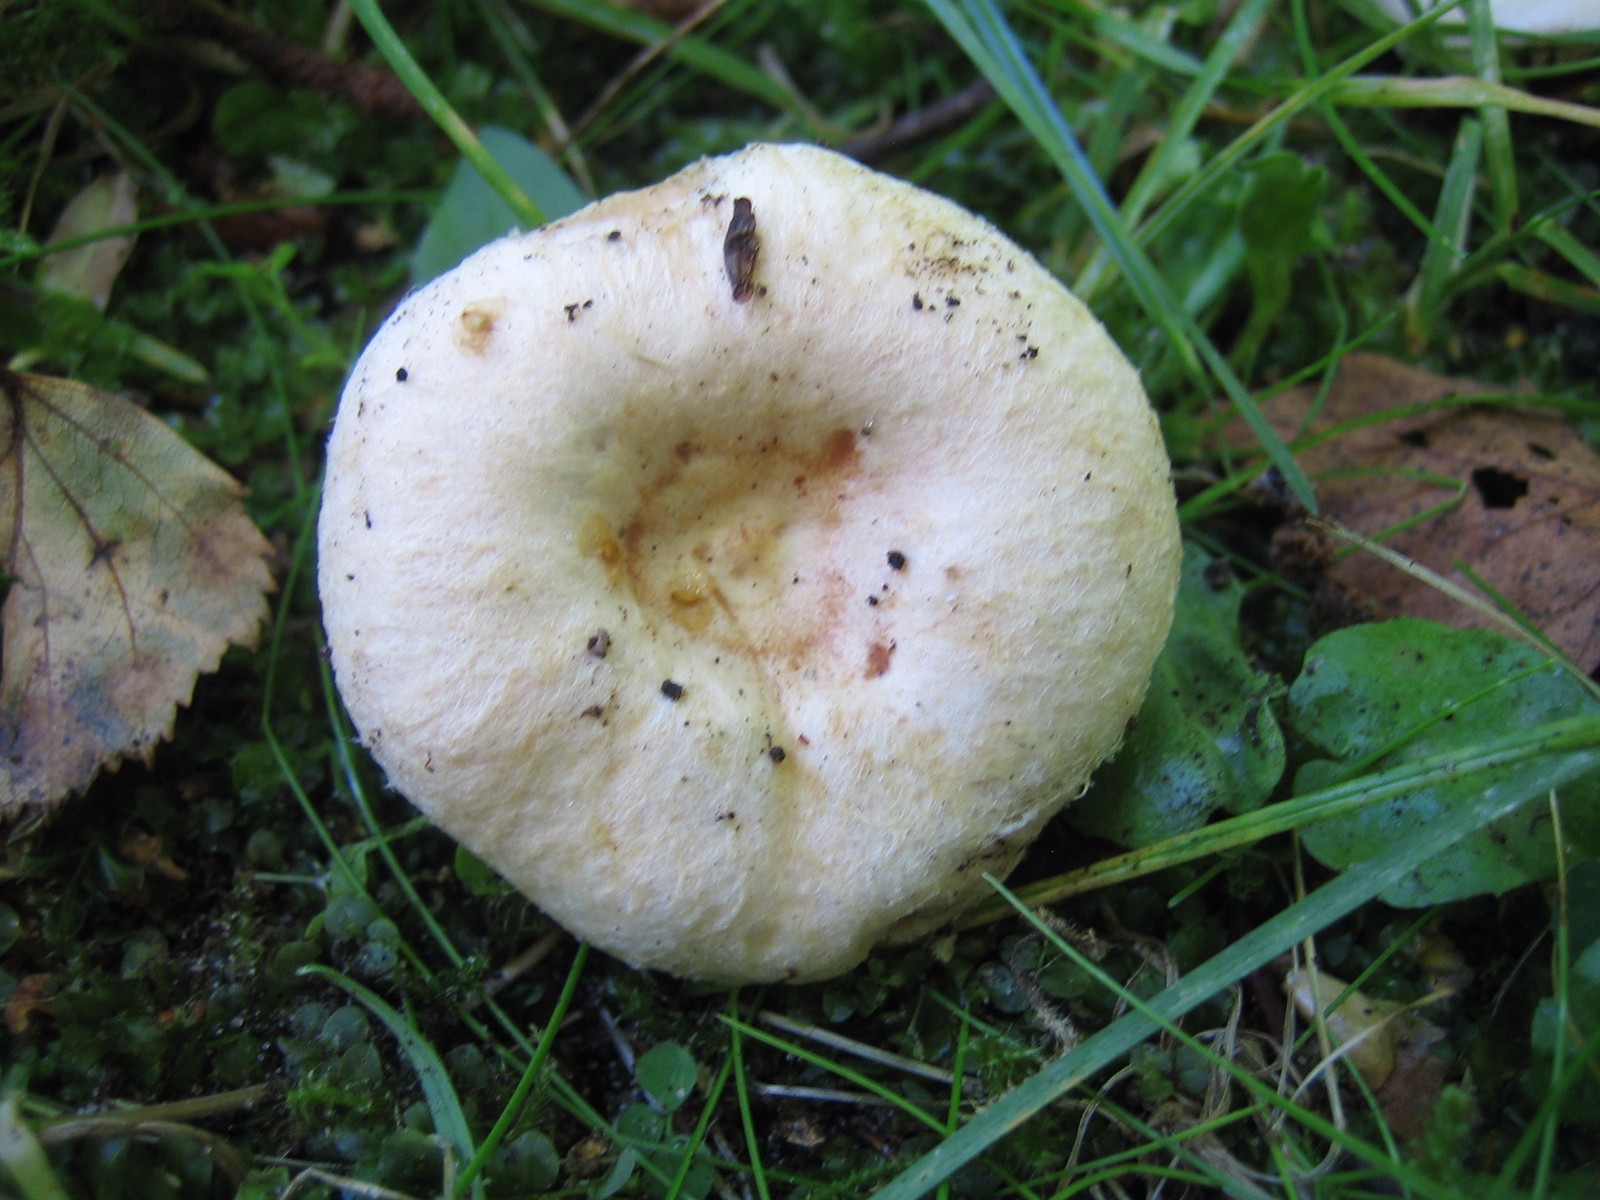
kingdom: Fungi
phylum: Basidiomycota
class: Agaricomycetes
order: Russulales
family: Russulaceae
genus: Lactarius
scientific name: Lactarius pubescens
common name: dunet mælkehat
